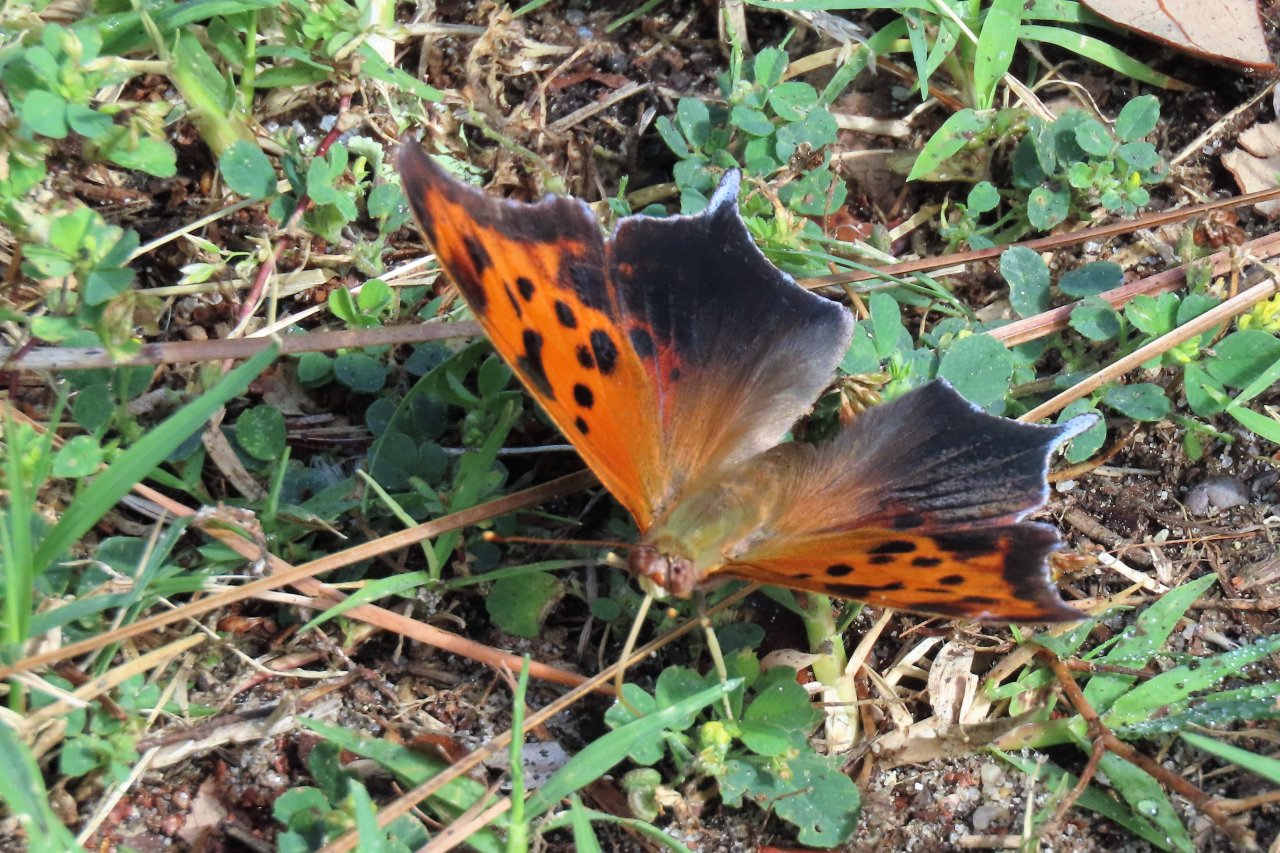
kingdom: Animalia
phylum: Arthropoda
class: Insecta
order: Lepidoptera
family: Nymphalidae
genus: Polygonia
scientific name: Polygonia interrogationis
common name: Question Mark
